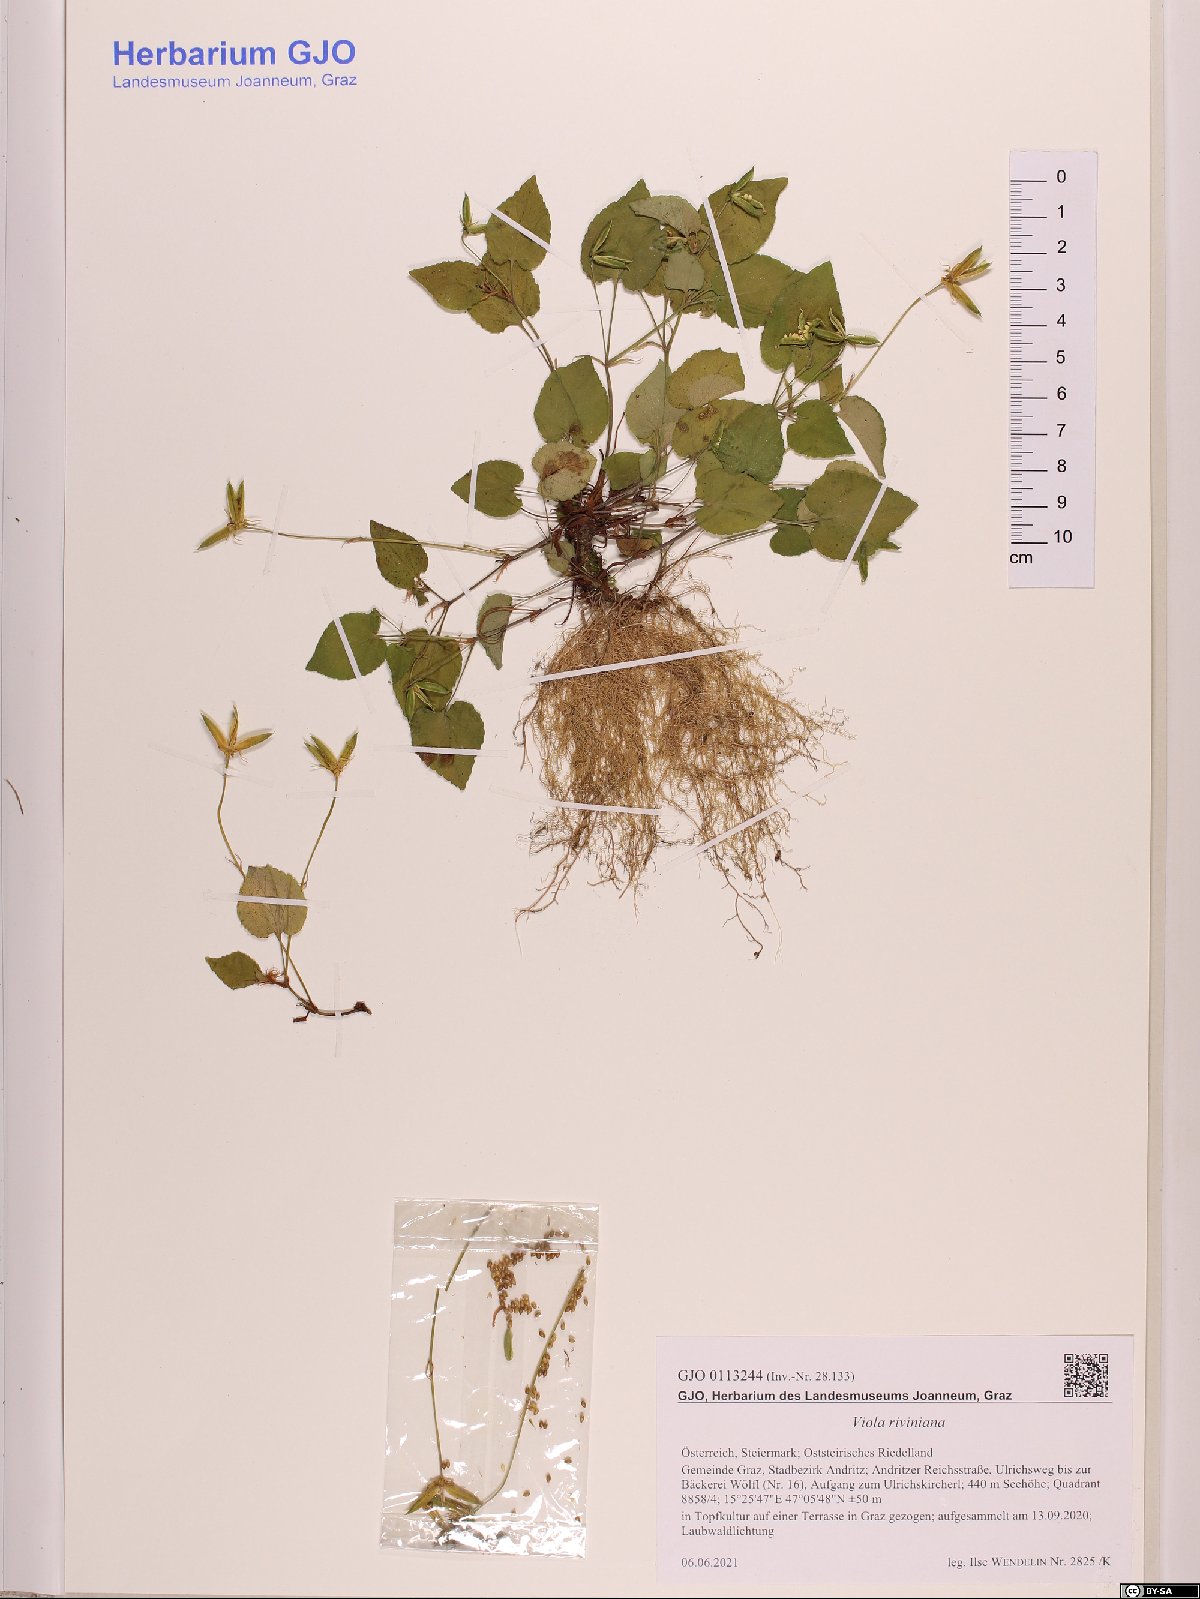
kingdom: Plantae
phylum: Tracheophyta
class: Magnoliopsida
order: Malpighiales
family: Violaceae
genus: Viola
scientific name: Viola riviniana
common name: Common dog-violet
